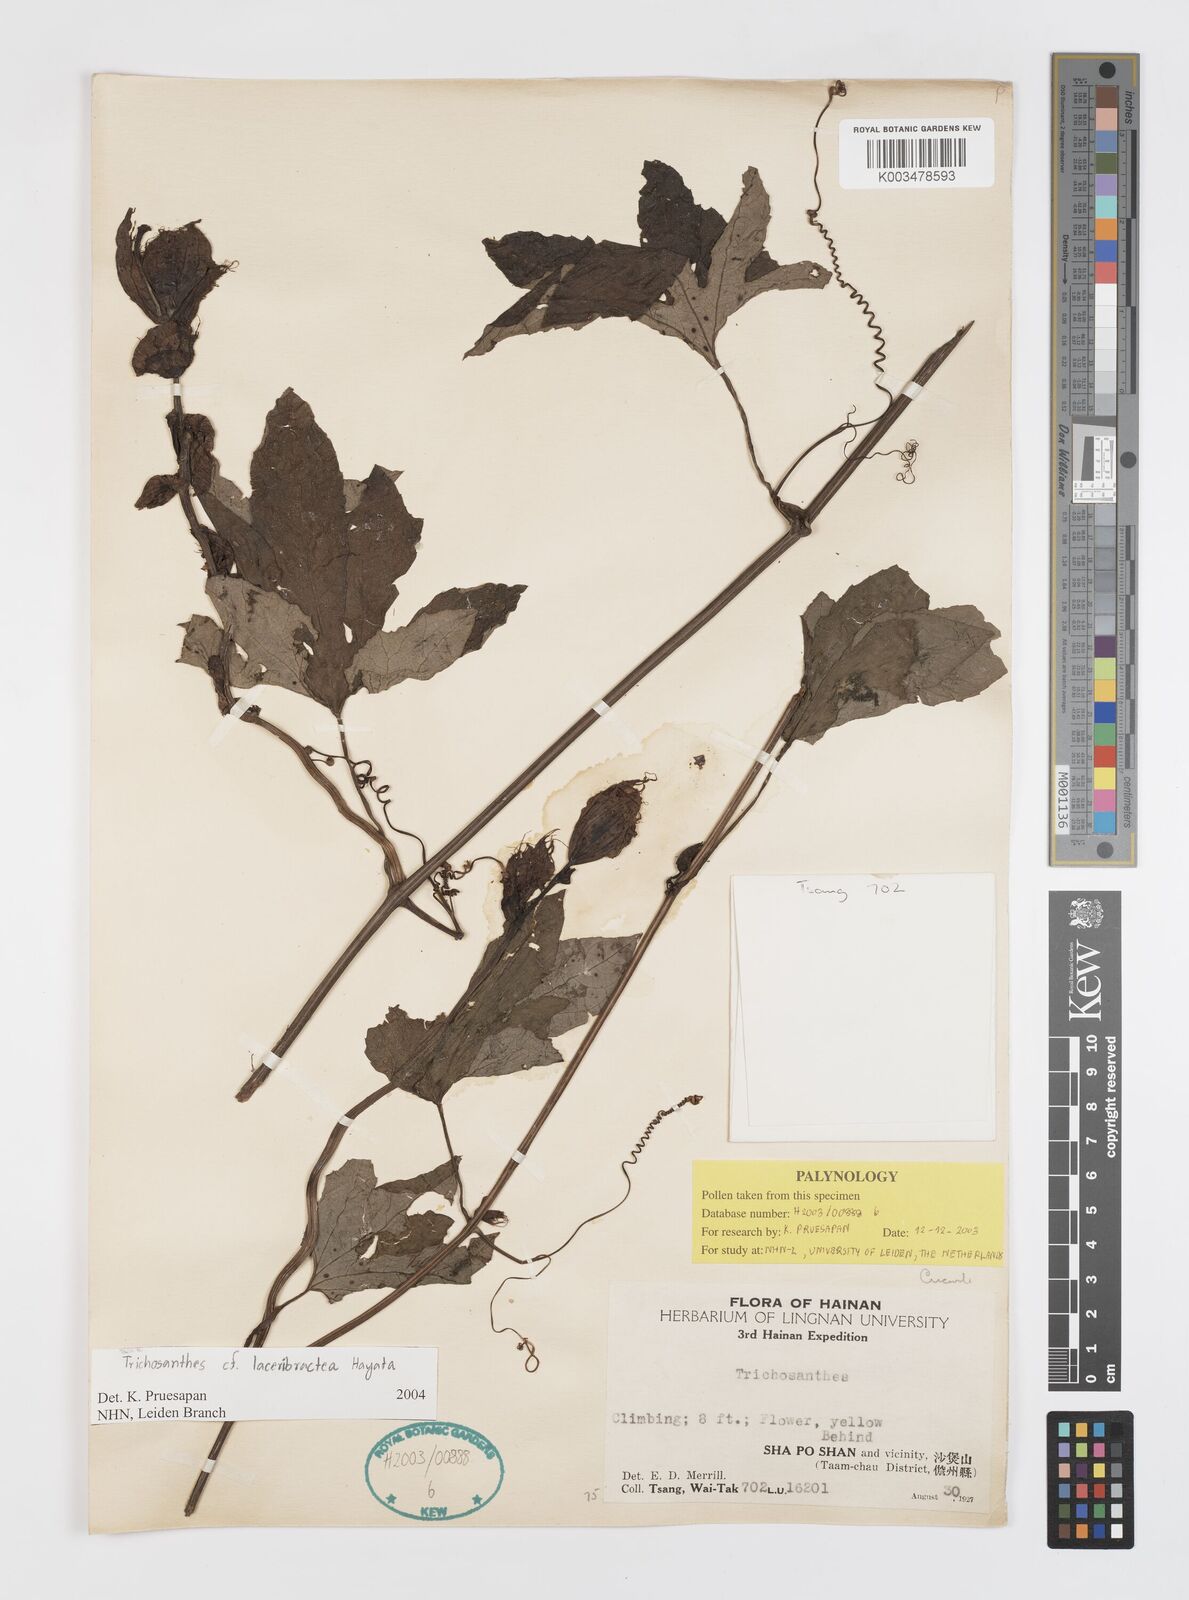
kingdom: Plantae
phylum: Tracheophyta
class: Magnoliopsida
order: Cucurbitales
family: Cucurbitaceae
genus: Trichosanthes
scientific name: Trichosanthes laceribractea
